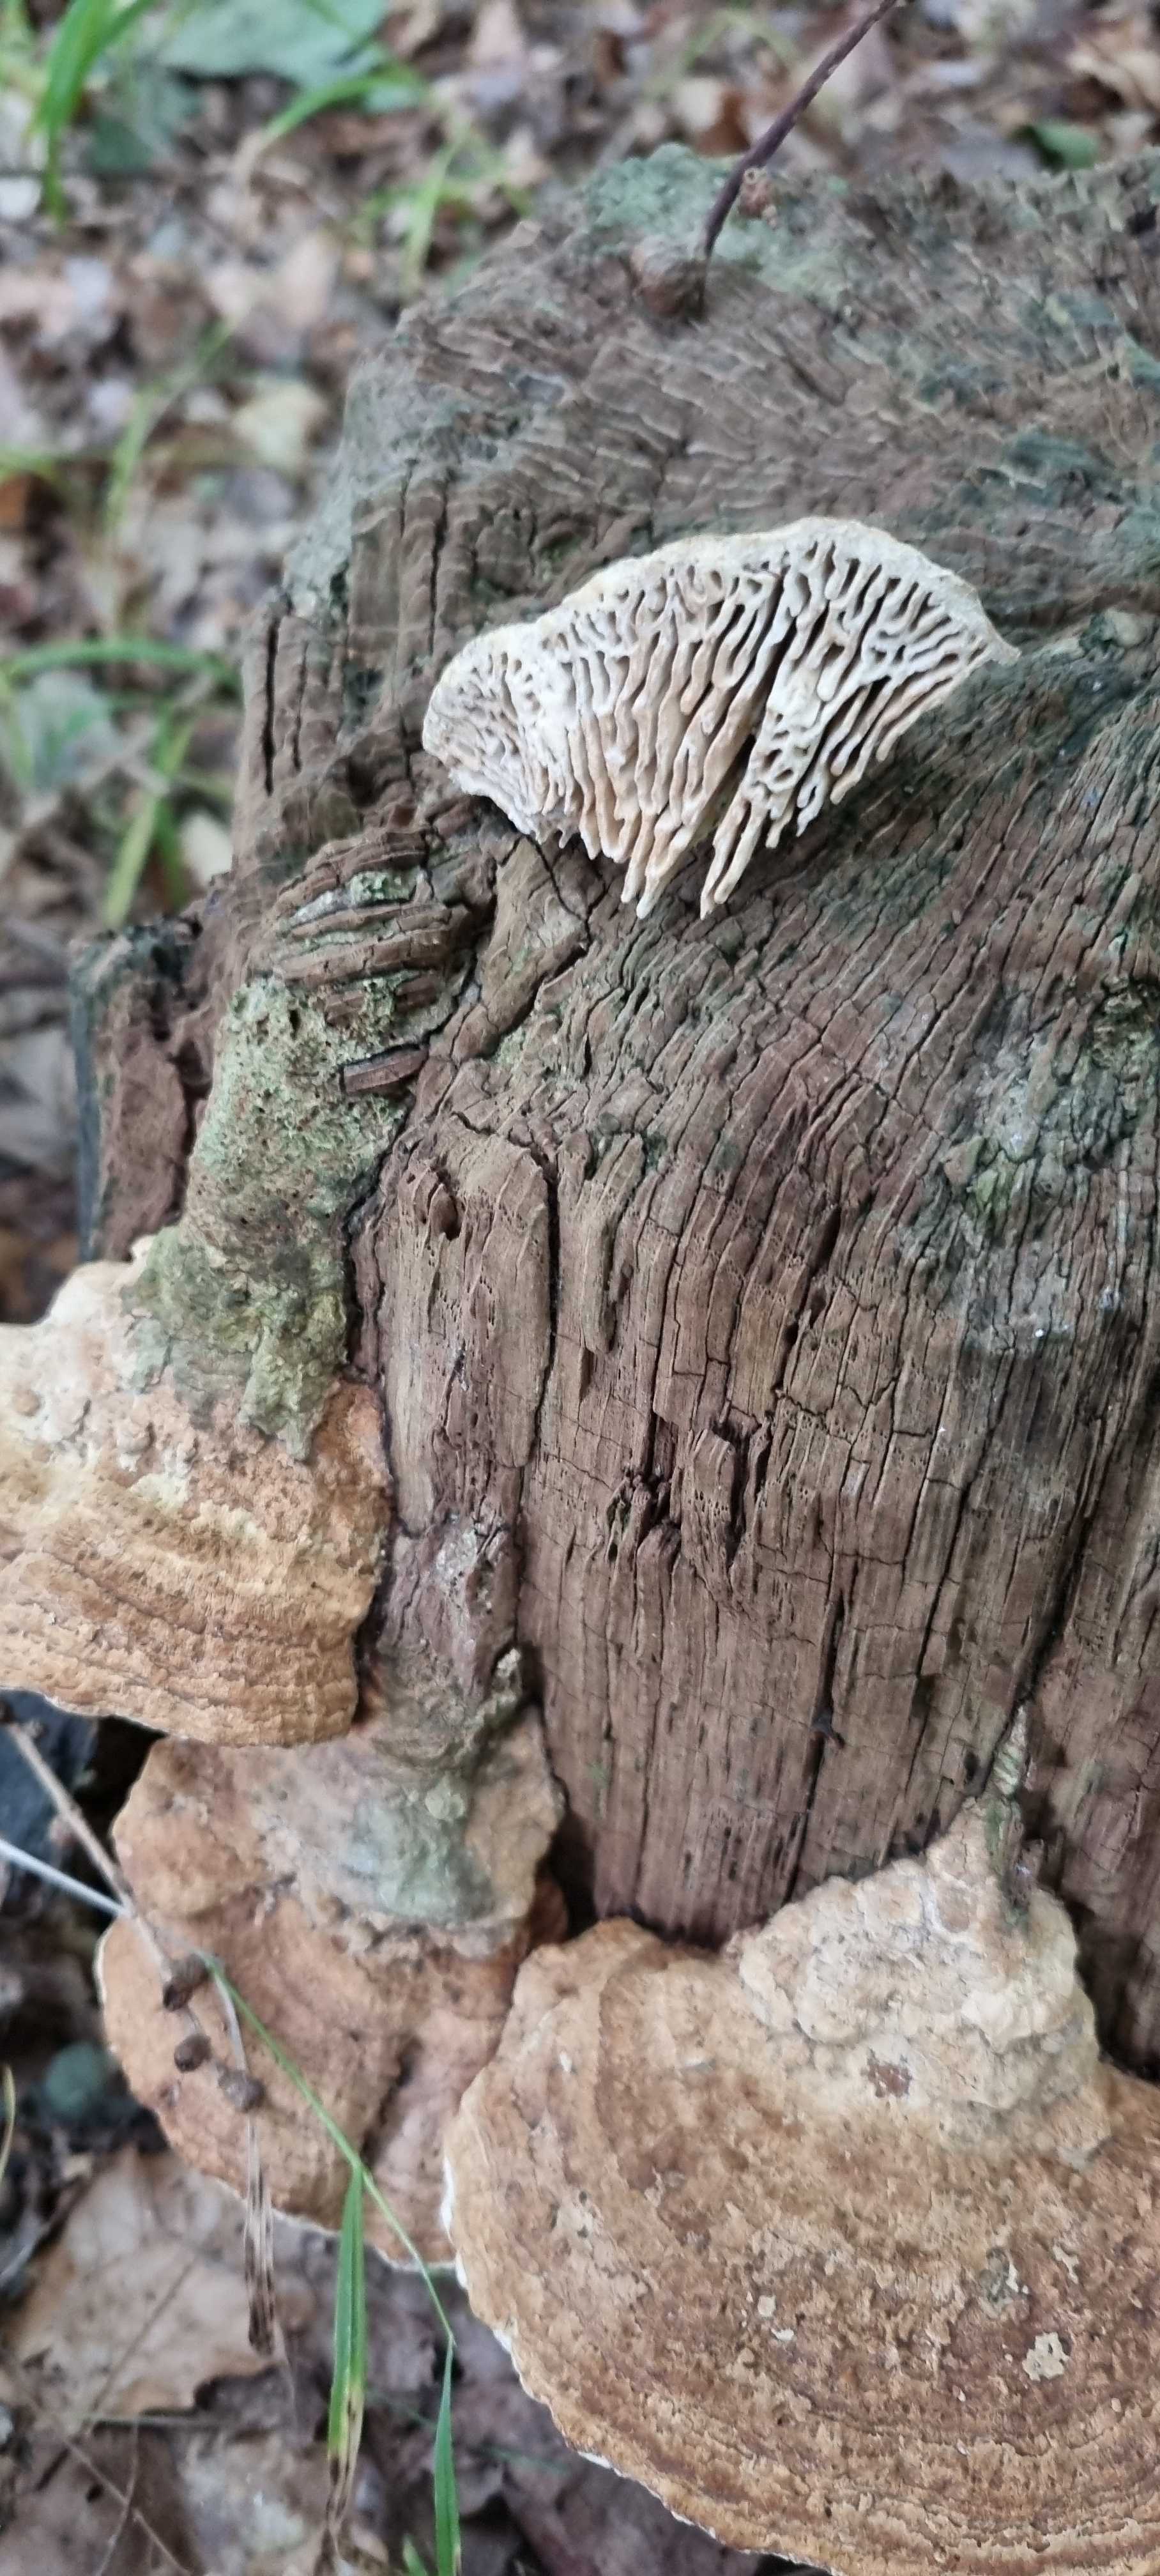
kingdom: Fungi
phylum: Basidiomycota
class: Agaricomycetes
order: Polyporales
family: Fomitopsidaceae
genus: Daedalea
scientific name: Daedalea quercina
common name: ege-labyrintsvamp
